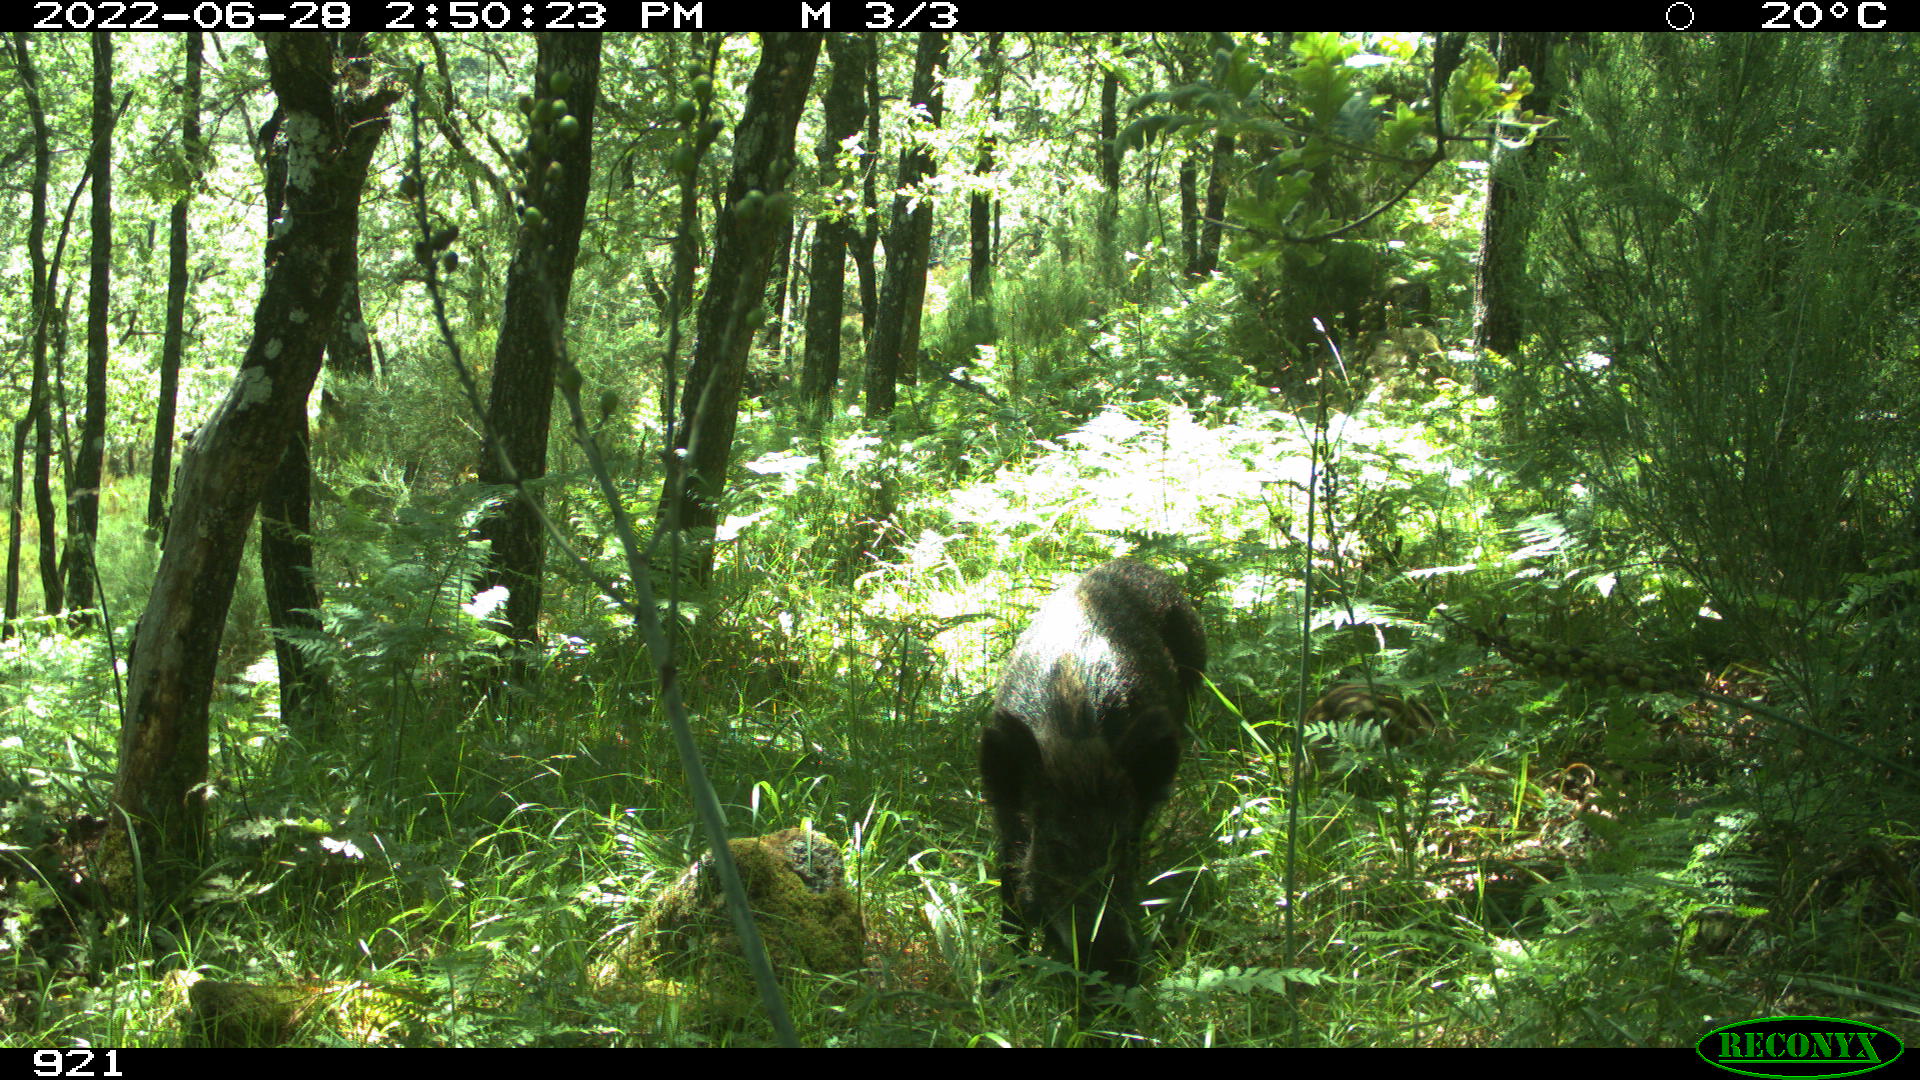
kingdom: Animalia
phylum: Chordata
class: Mammalia
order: Artiodactyla
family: Suidae
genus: Sus
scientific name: Sus scrofa
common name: Wild boar
